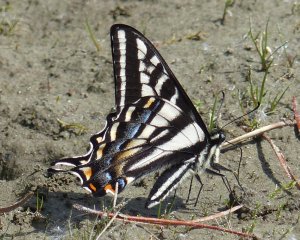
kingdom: Animalia
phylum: Arthropoda
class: Insecta
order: Lepidoptera
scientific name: Lepidoptera
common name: Butterflies
